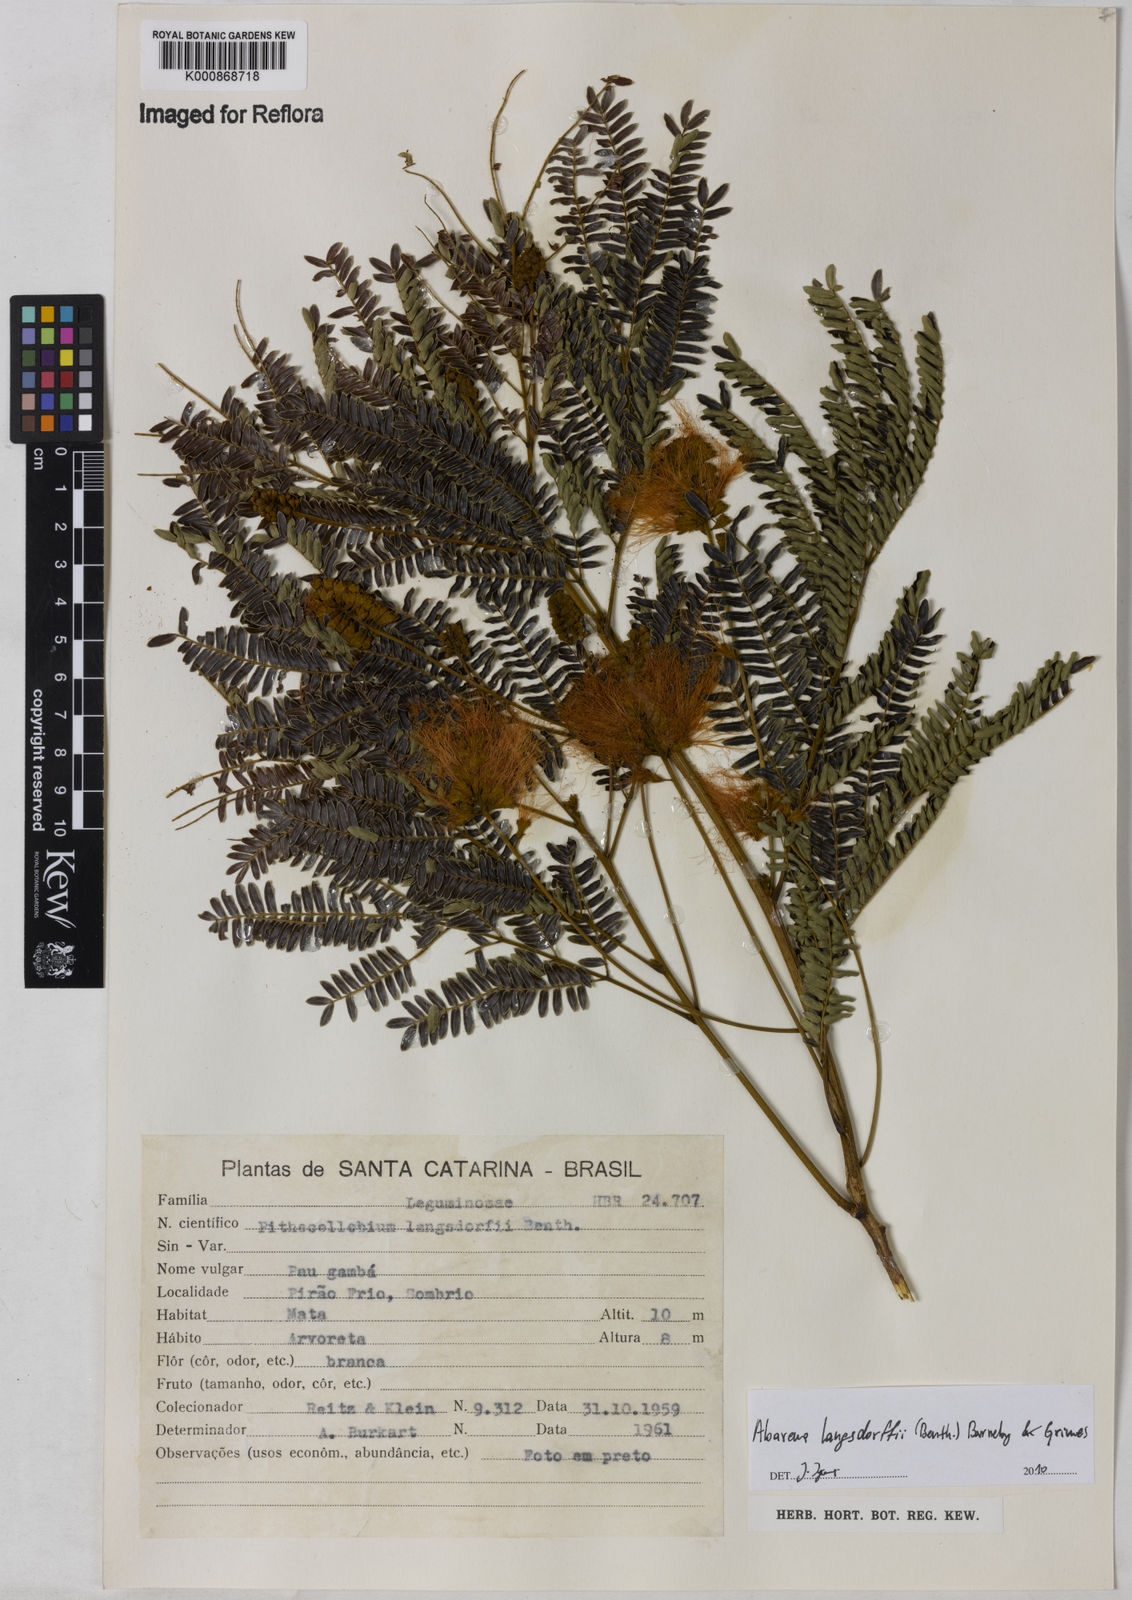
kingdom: Plantae
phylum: Tracheophyta
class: Magnoliopsida
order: Fabales
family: Fabaceae
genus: Jupunba
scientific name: Jupunba langsdorffii
